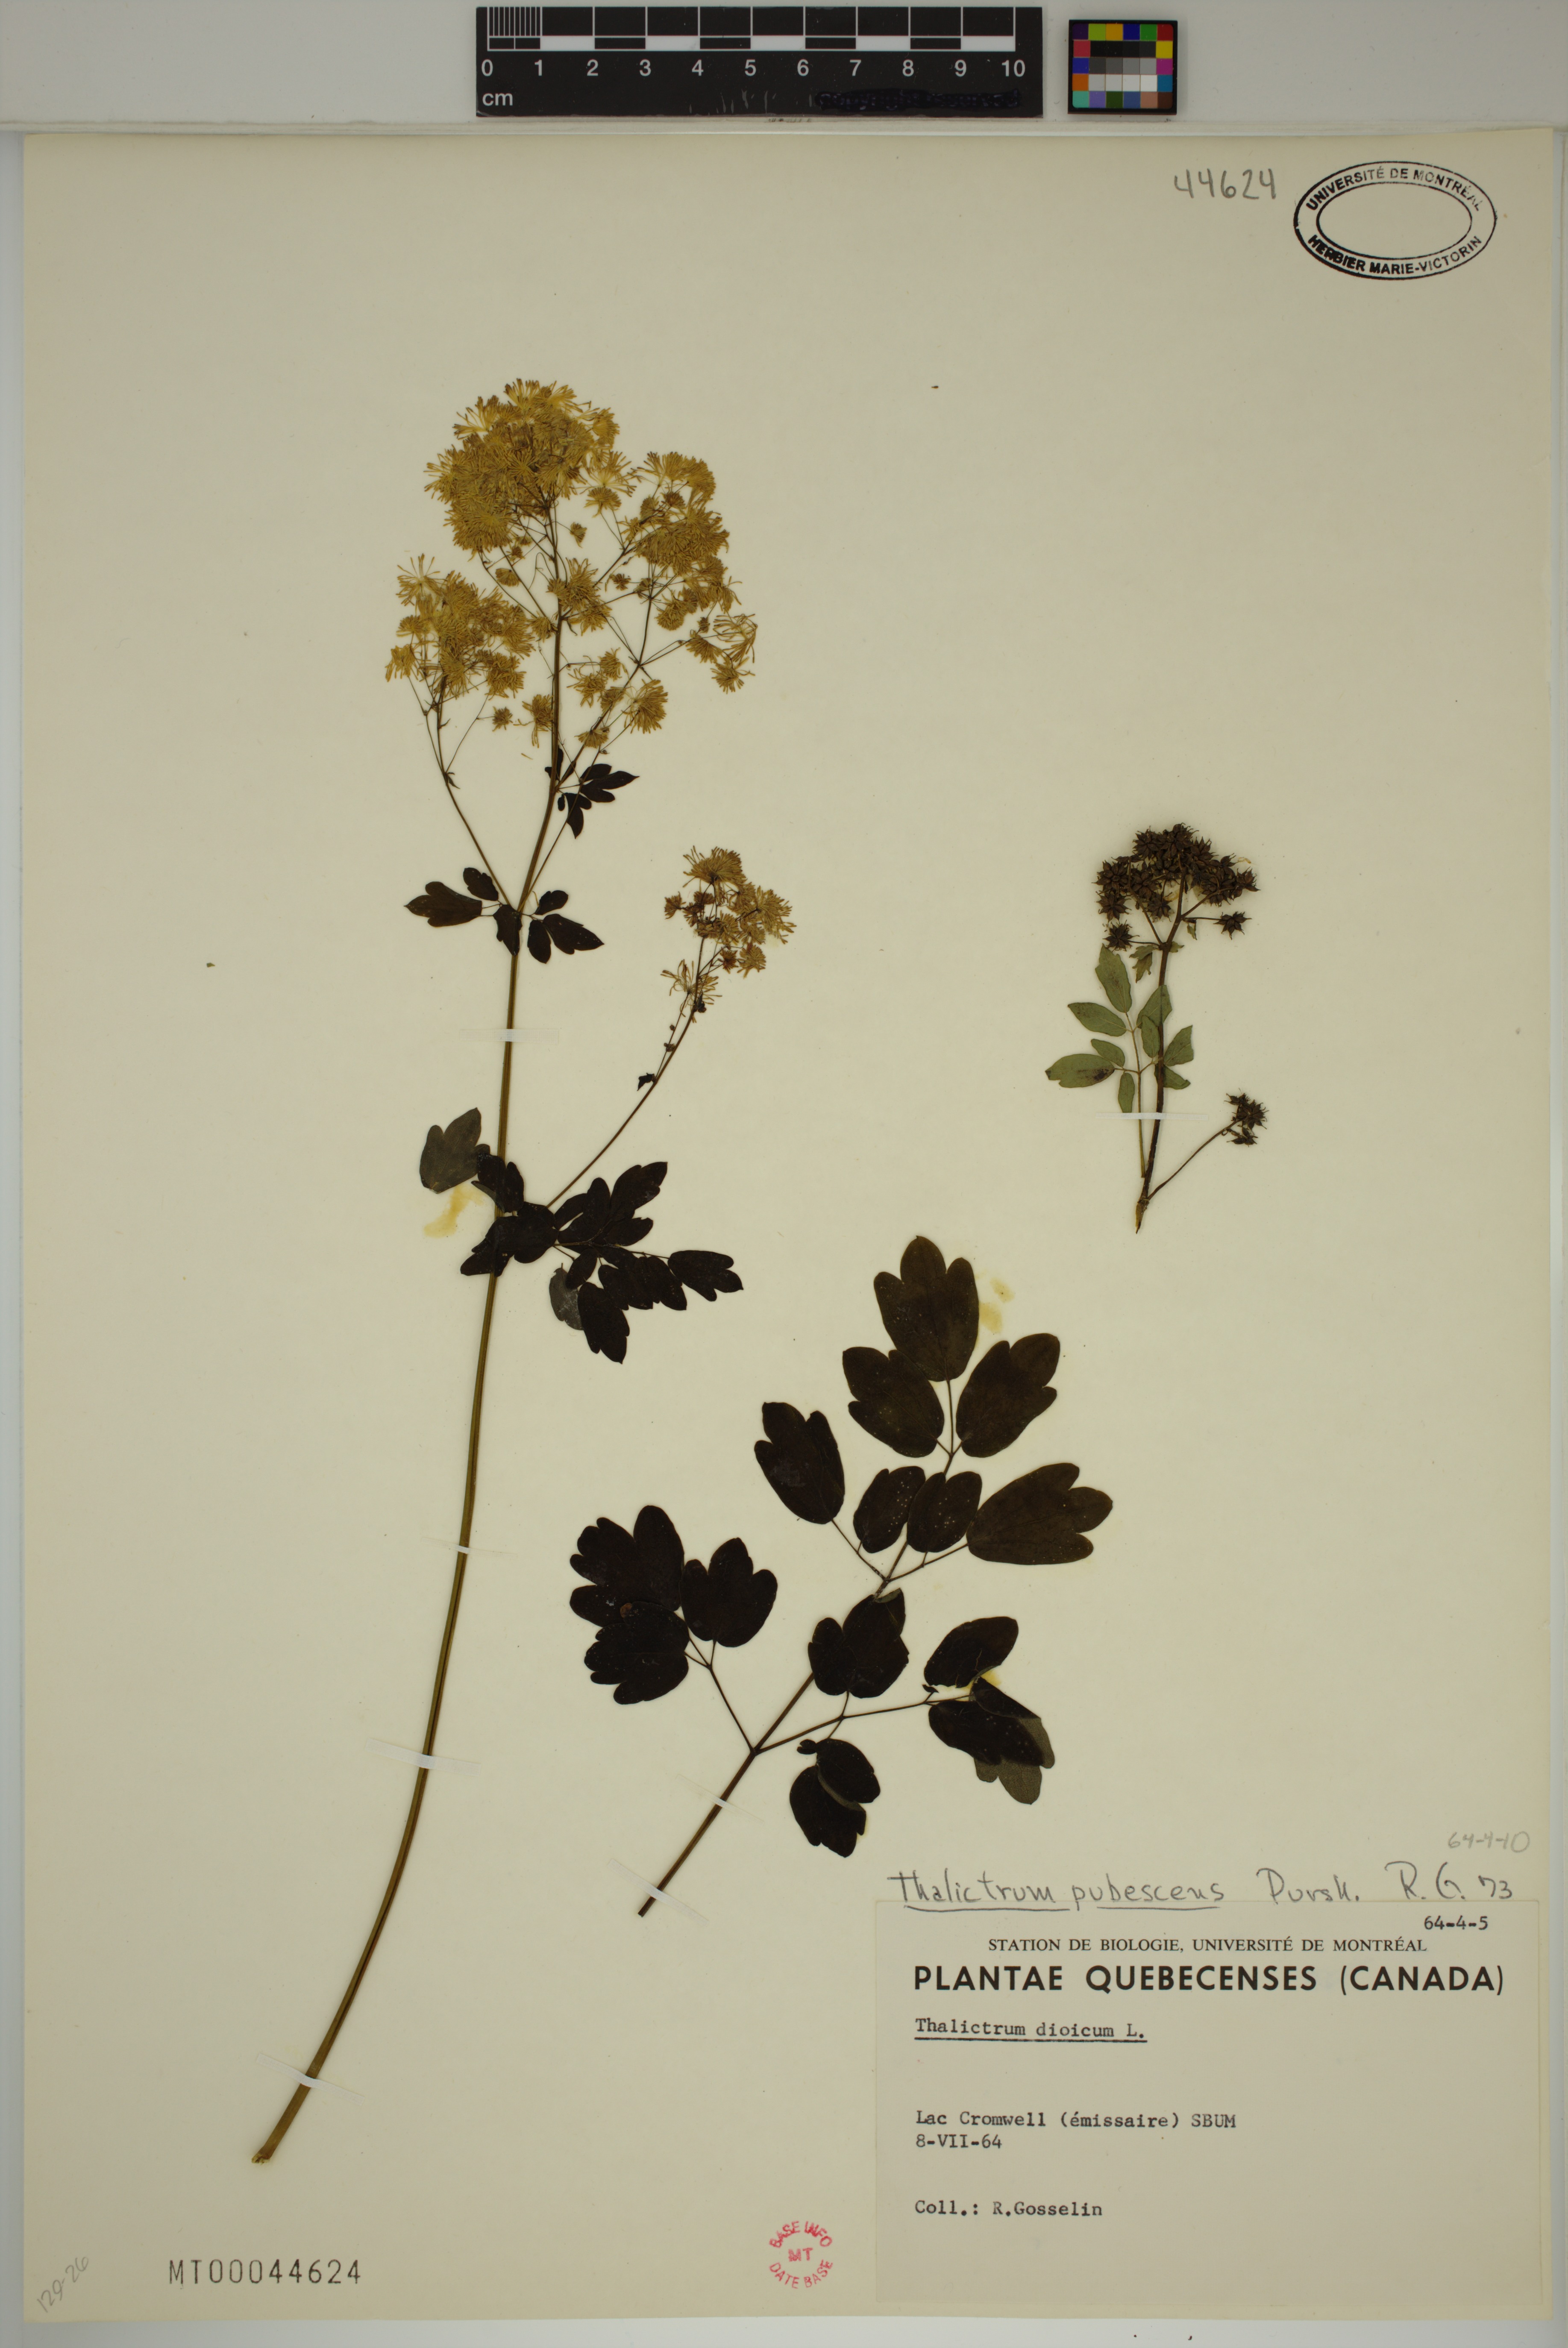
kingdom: Plantae
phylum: Tracheophyta
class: Magnoliopsida
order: Ranunculales
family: Ranunculaceae
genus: Thalictrum
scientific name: Thalictrum pubescens
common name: King-of-the-meadow
